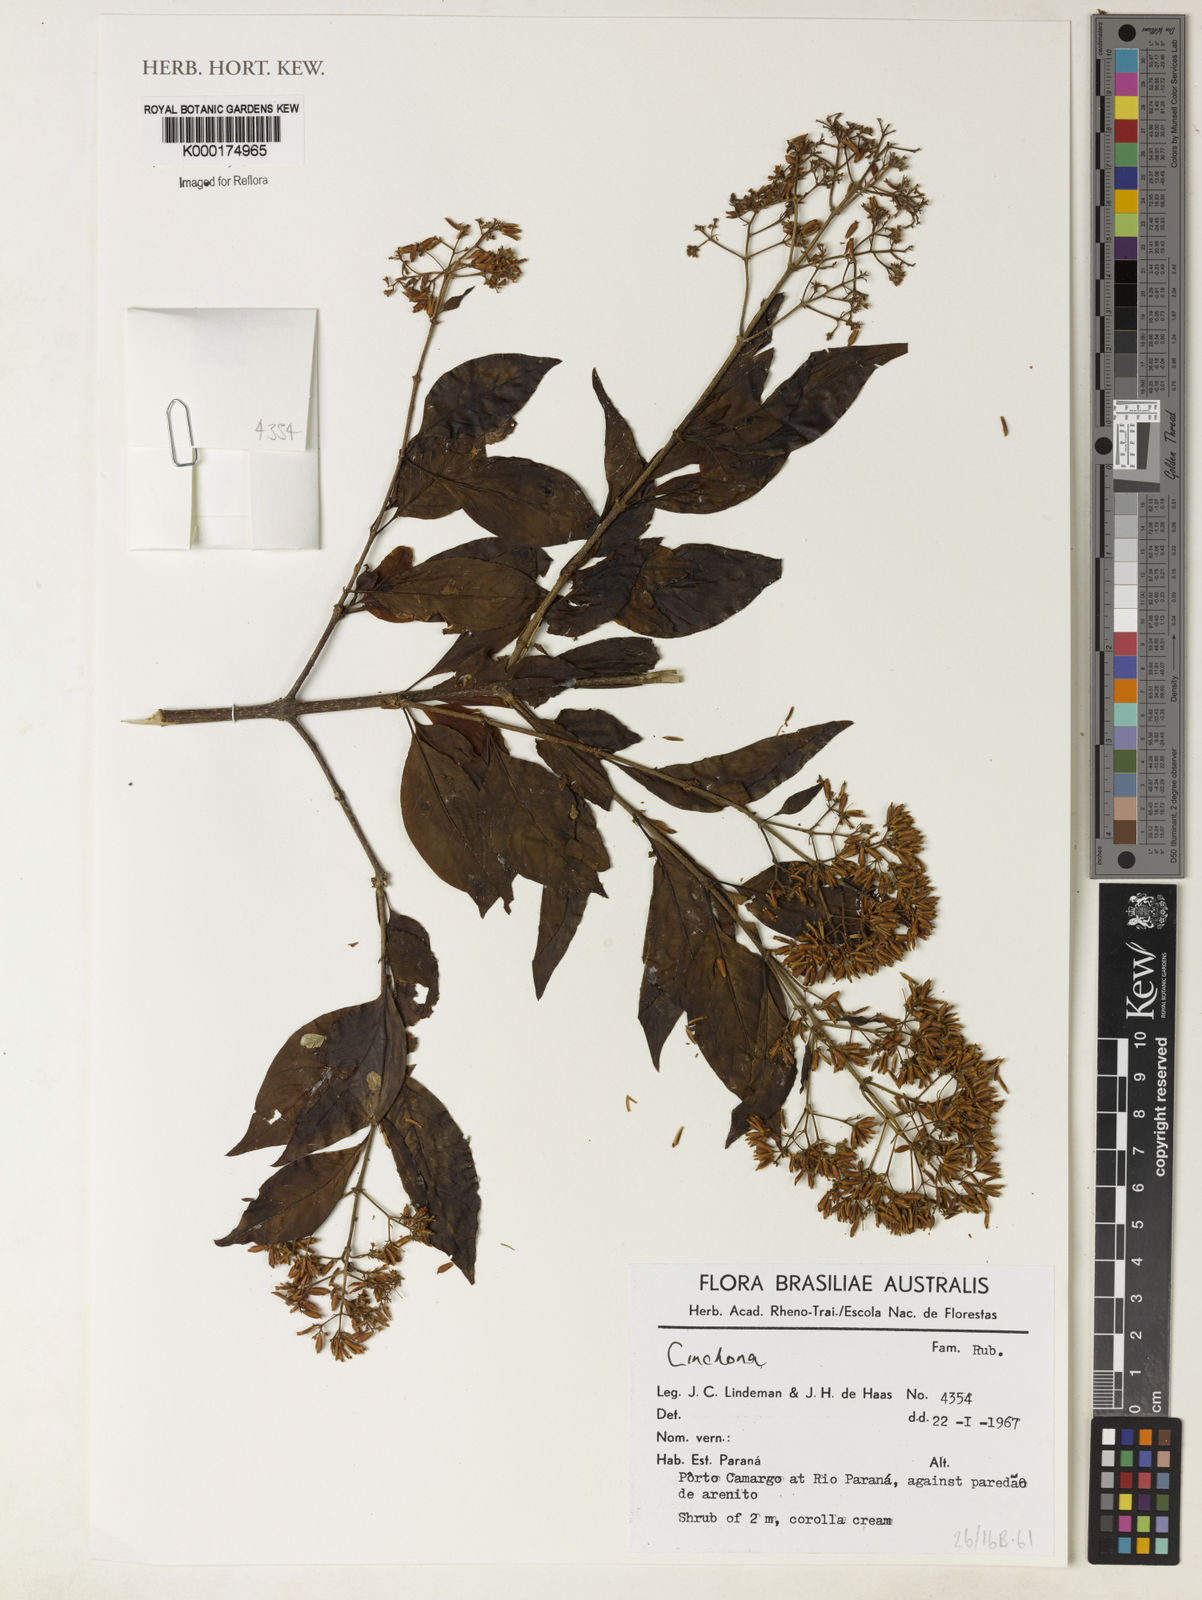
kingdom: Plantae
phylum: Tracheophyta
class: Magnoliopsida
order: Gentianales
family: Rubiaceae
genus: Cinchona
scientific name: Cinchona
